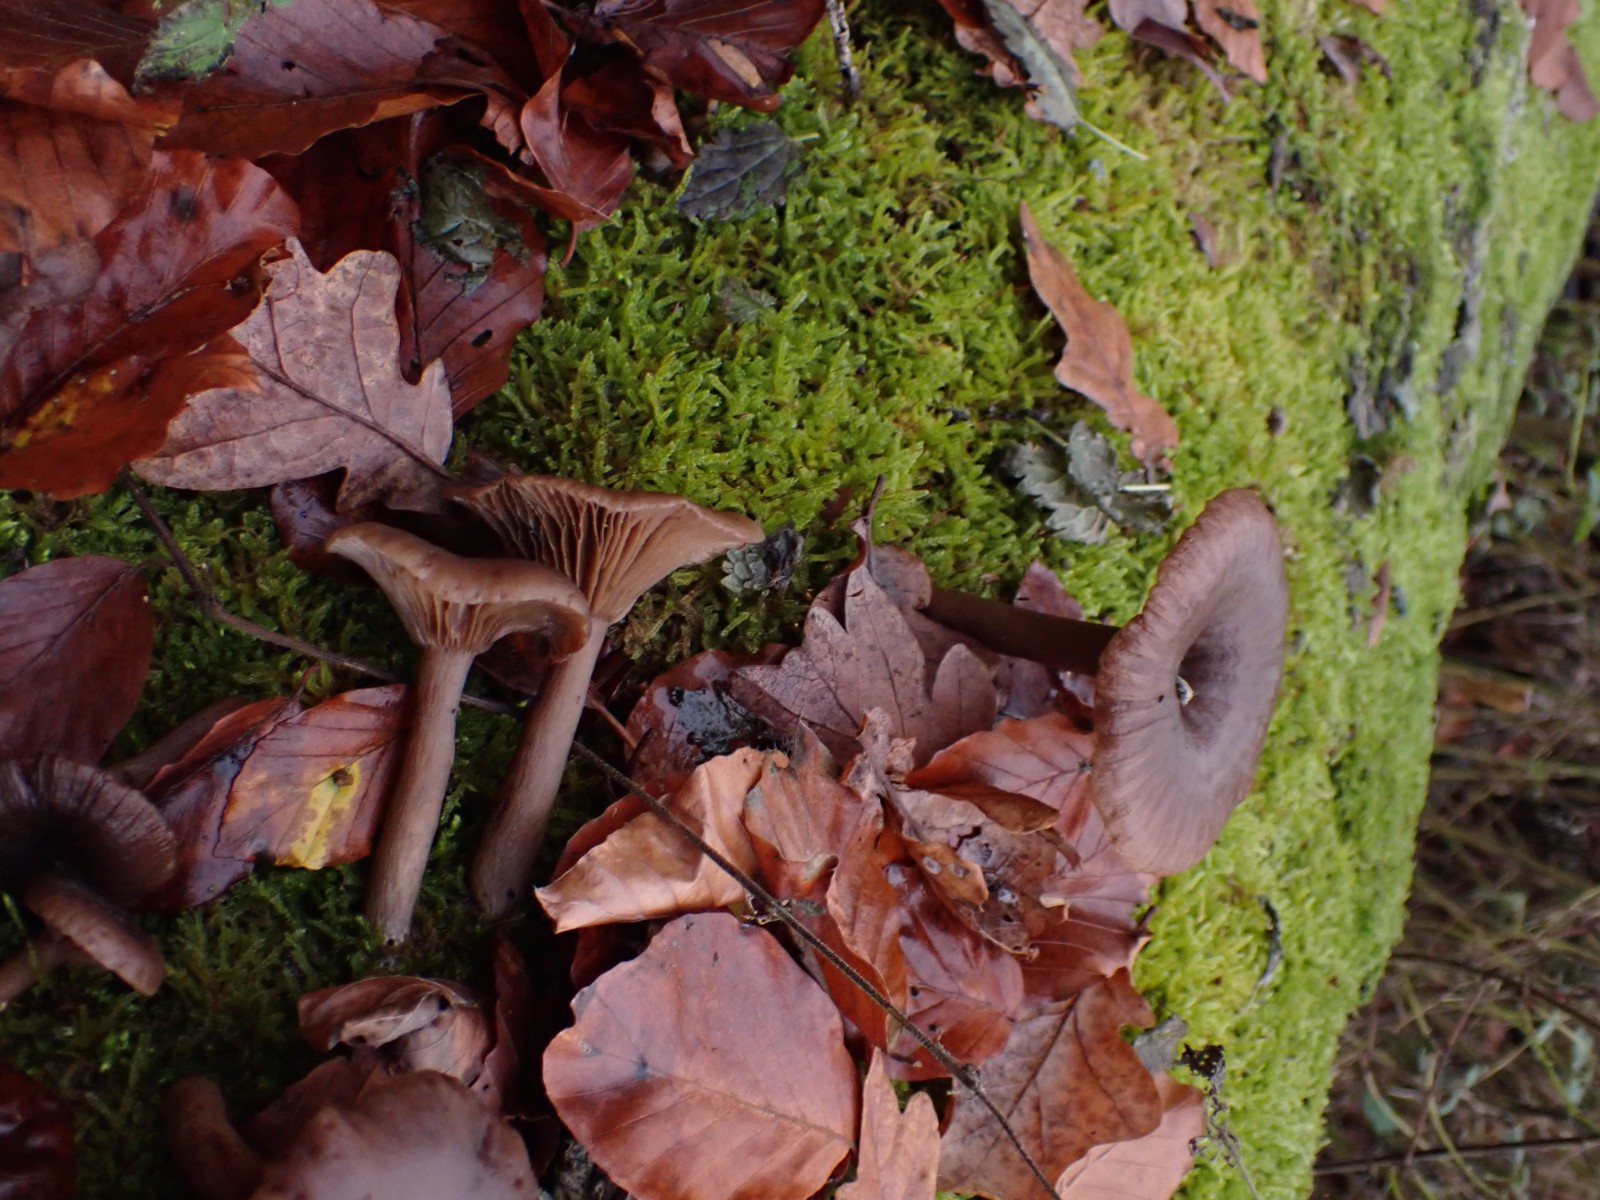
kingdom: Fungi
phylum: Basidiomycota
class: Agaricomycetes
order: Agaricales
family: Pseudoclitocybaceae
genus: Pseudoclitocybe
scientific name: Pseudoclitocybe cyathiformis
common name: almindelig bægertragthat
